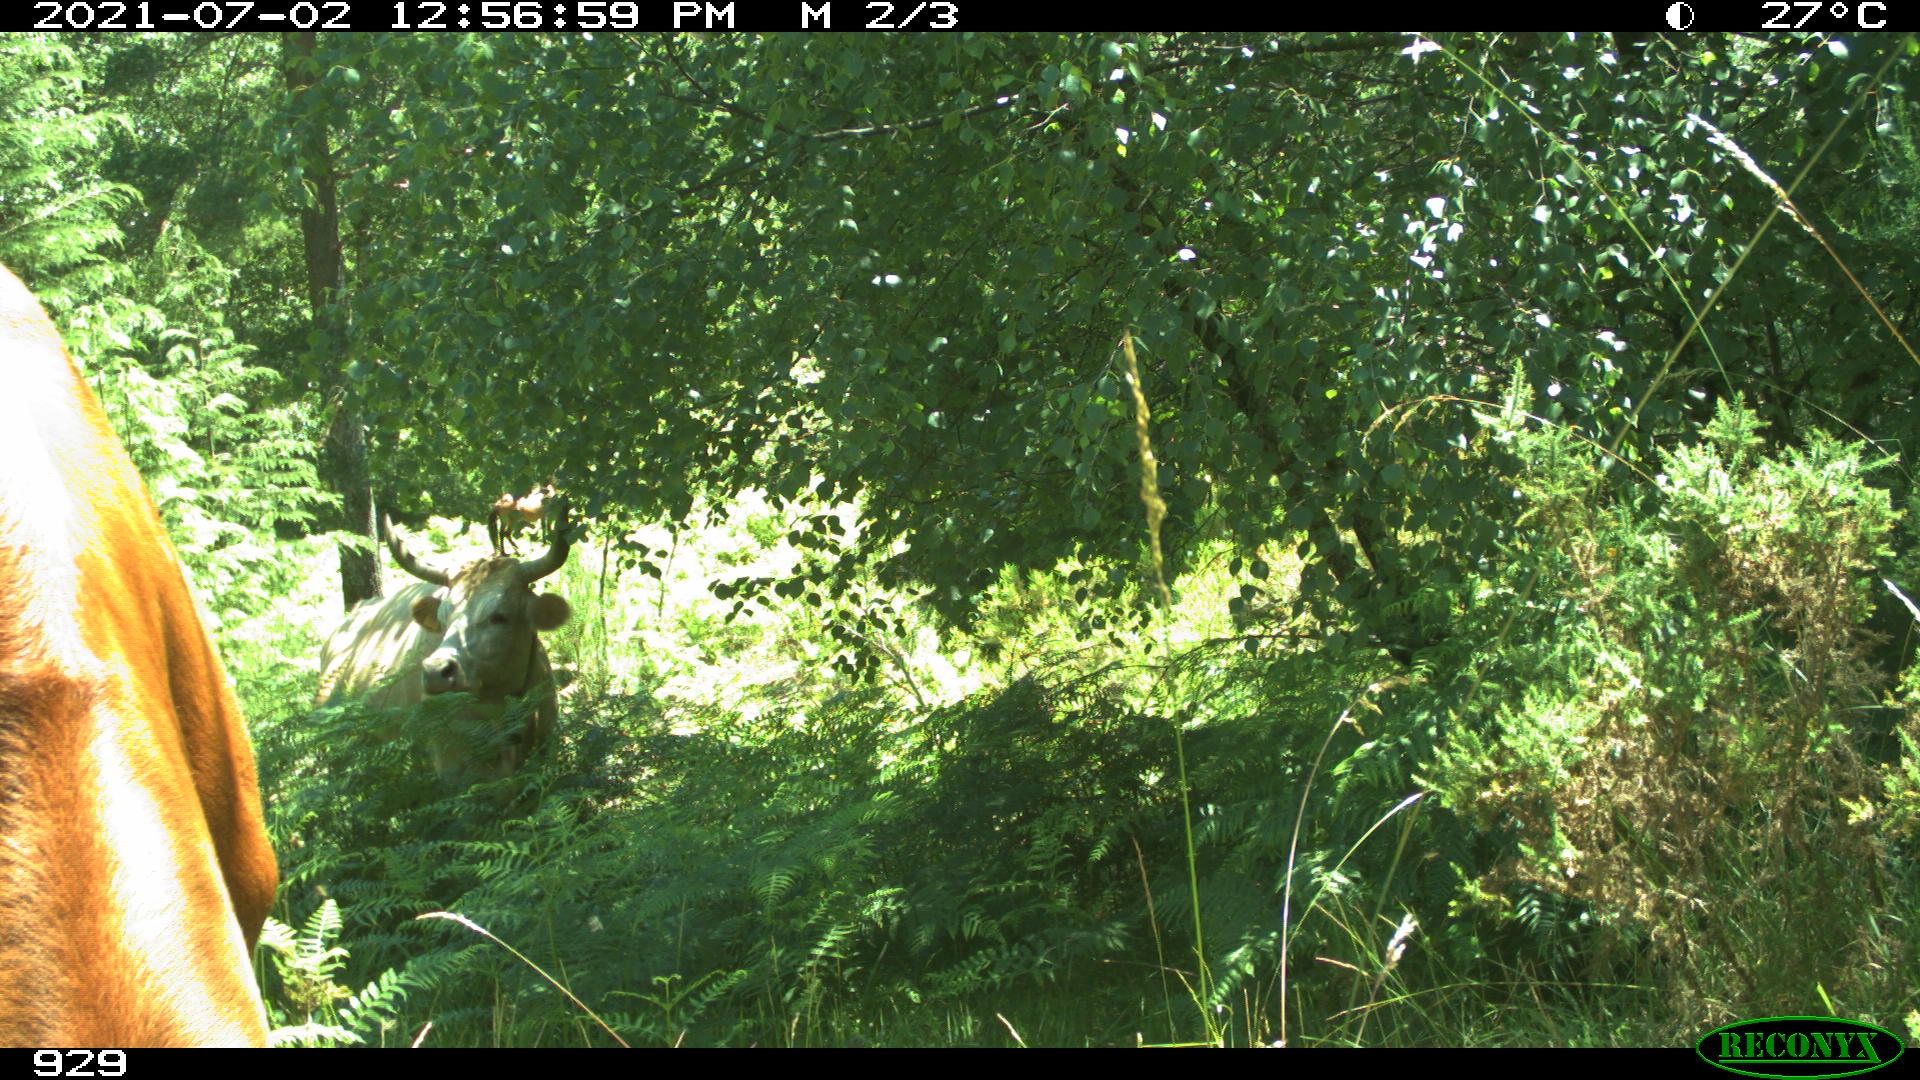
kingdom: Animalia
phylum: Chordata
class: Mammalia
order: Artiodactyla
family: Bovidae
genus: Bos
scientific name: Bos taurus
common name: Domesticated cattle
